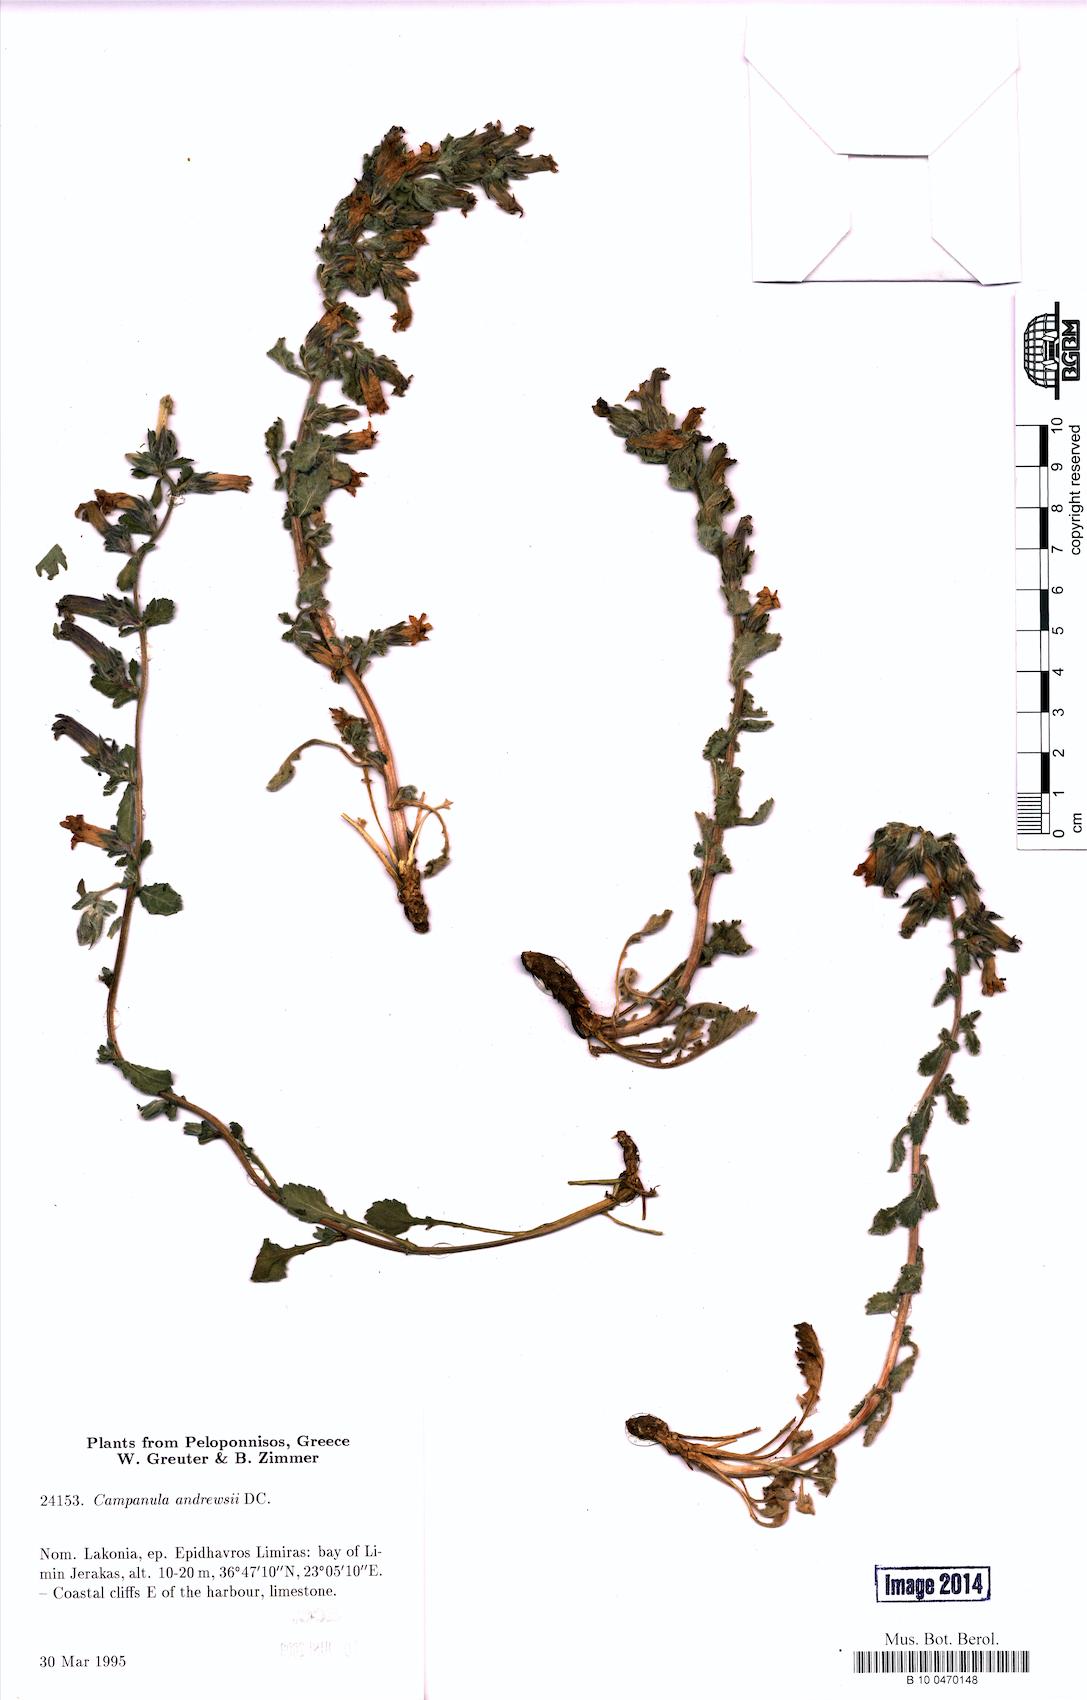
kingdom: Plantae
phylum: Tracheophyta
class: Magnoliopsida
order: Asterales
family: Campanulaceae
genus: Campanula
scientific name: Campanula andrewsii
